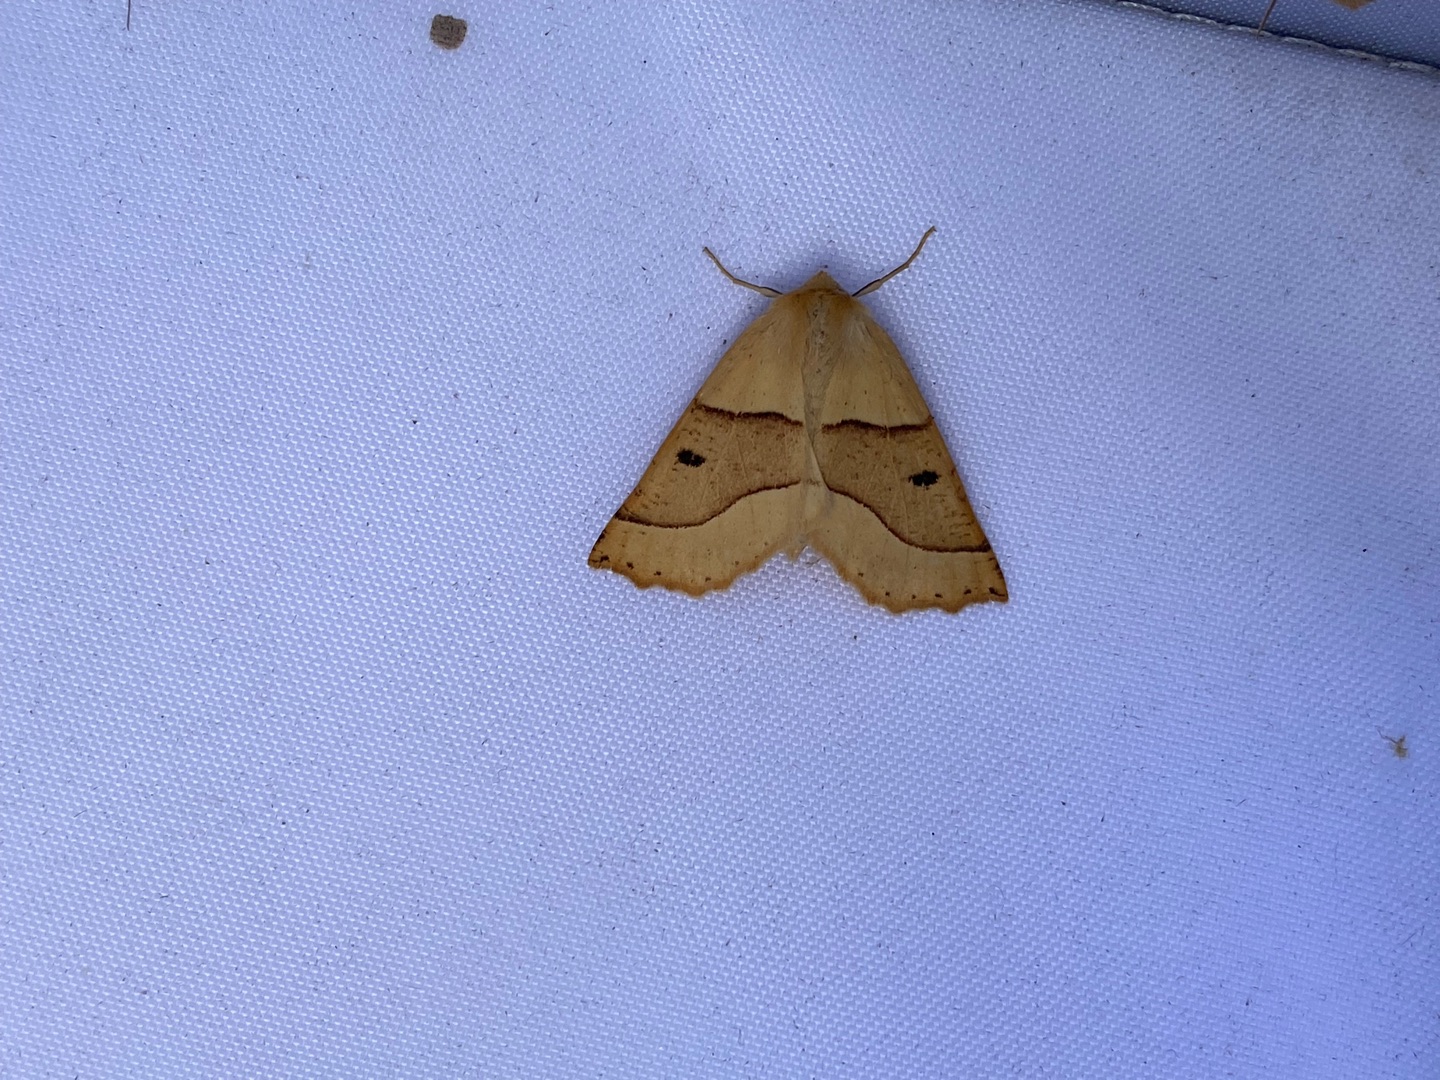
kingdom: Animalia
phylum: Arthropoda
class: Insecta
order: Lepidoptera
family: Geometridae
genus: Crocallis
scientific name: Crocallis elinguaria
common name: Okkergul rovmåler
